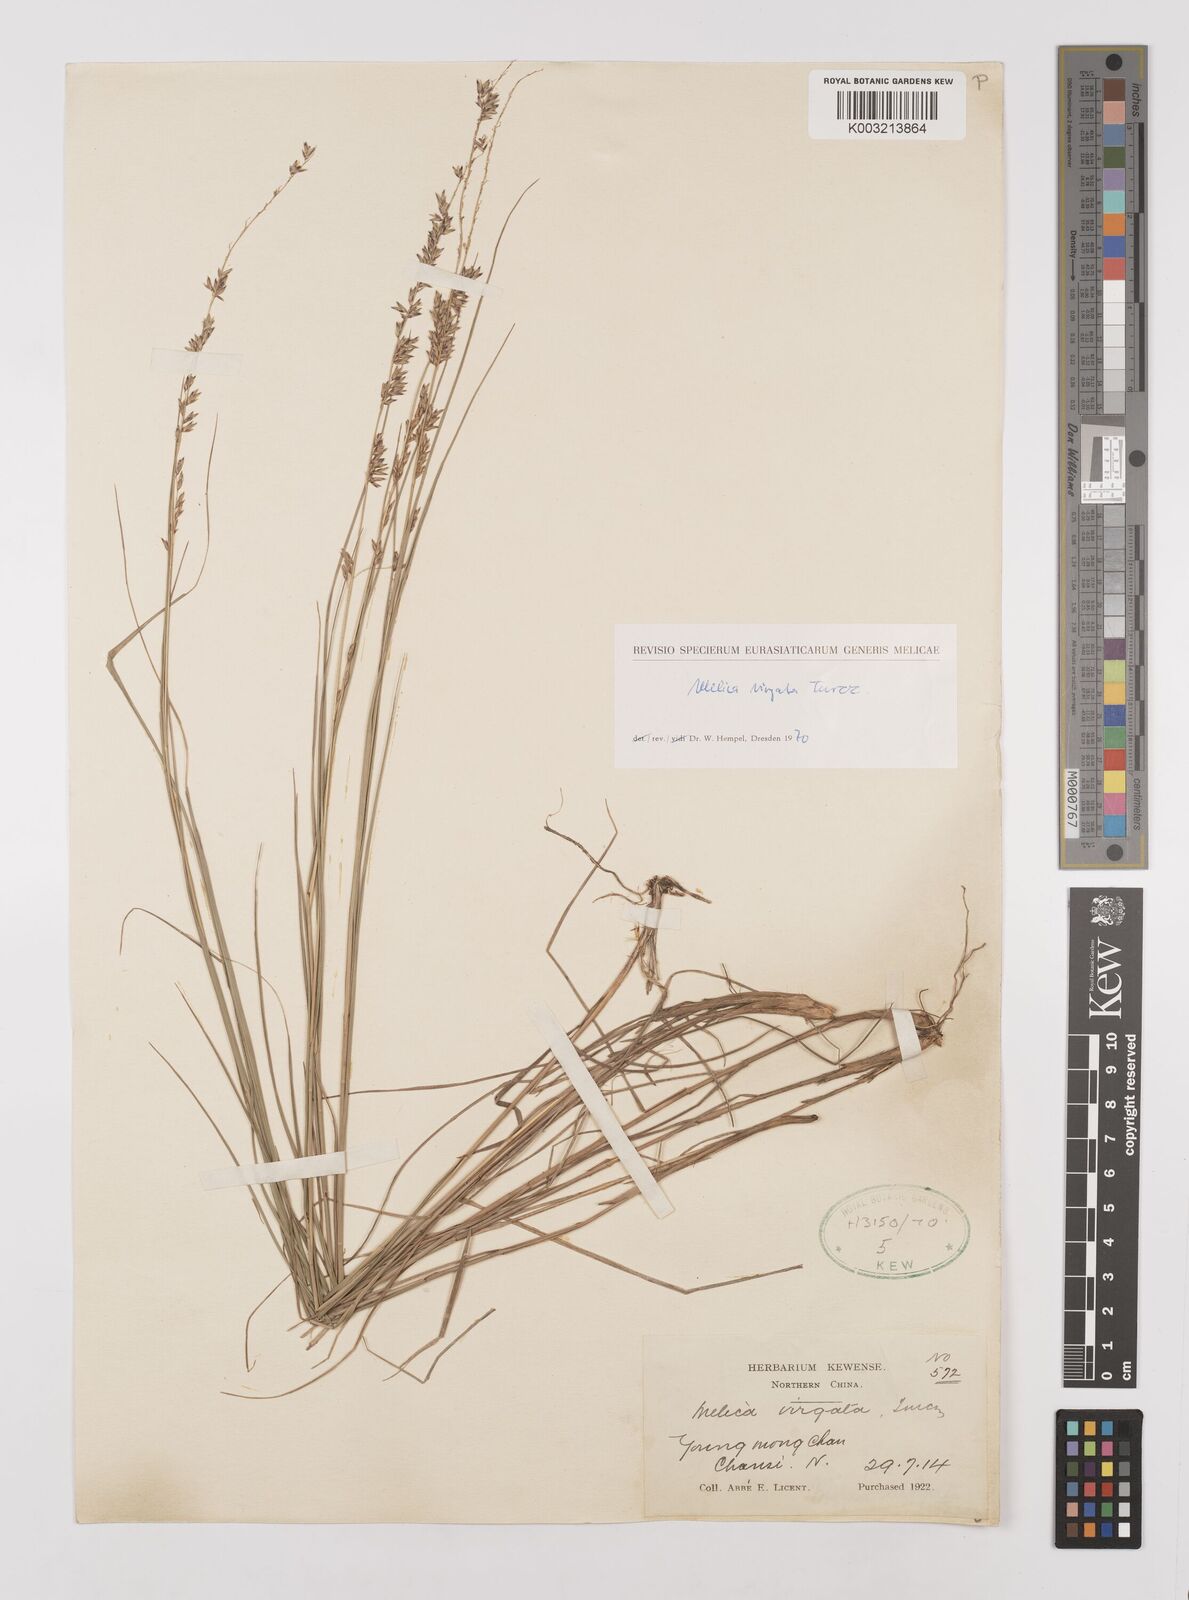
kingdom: Plantae
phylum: Tracheophyta
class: Liliopsida
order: Poales
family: Poaceae
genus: Melica
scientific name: Melica virgata
